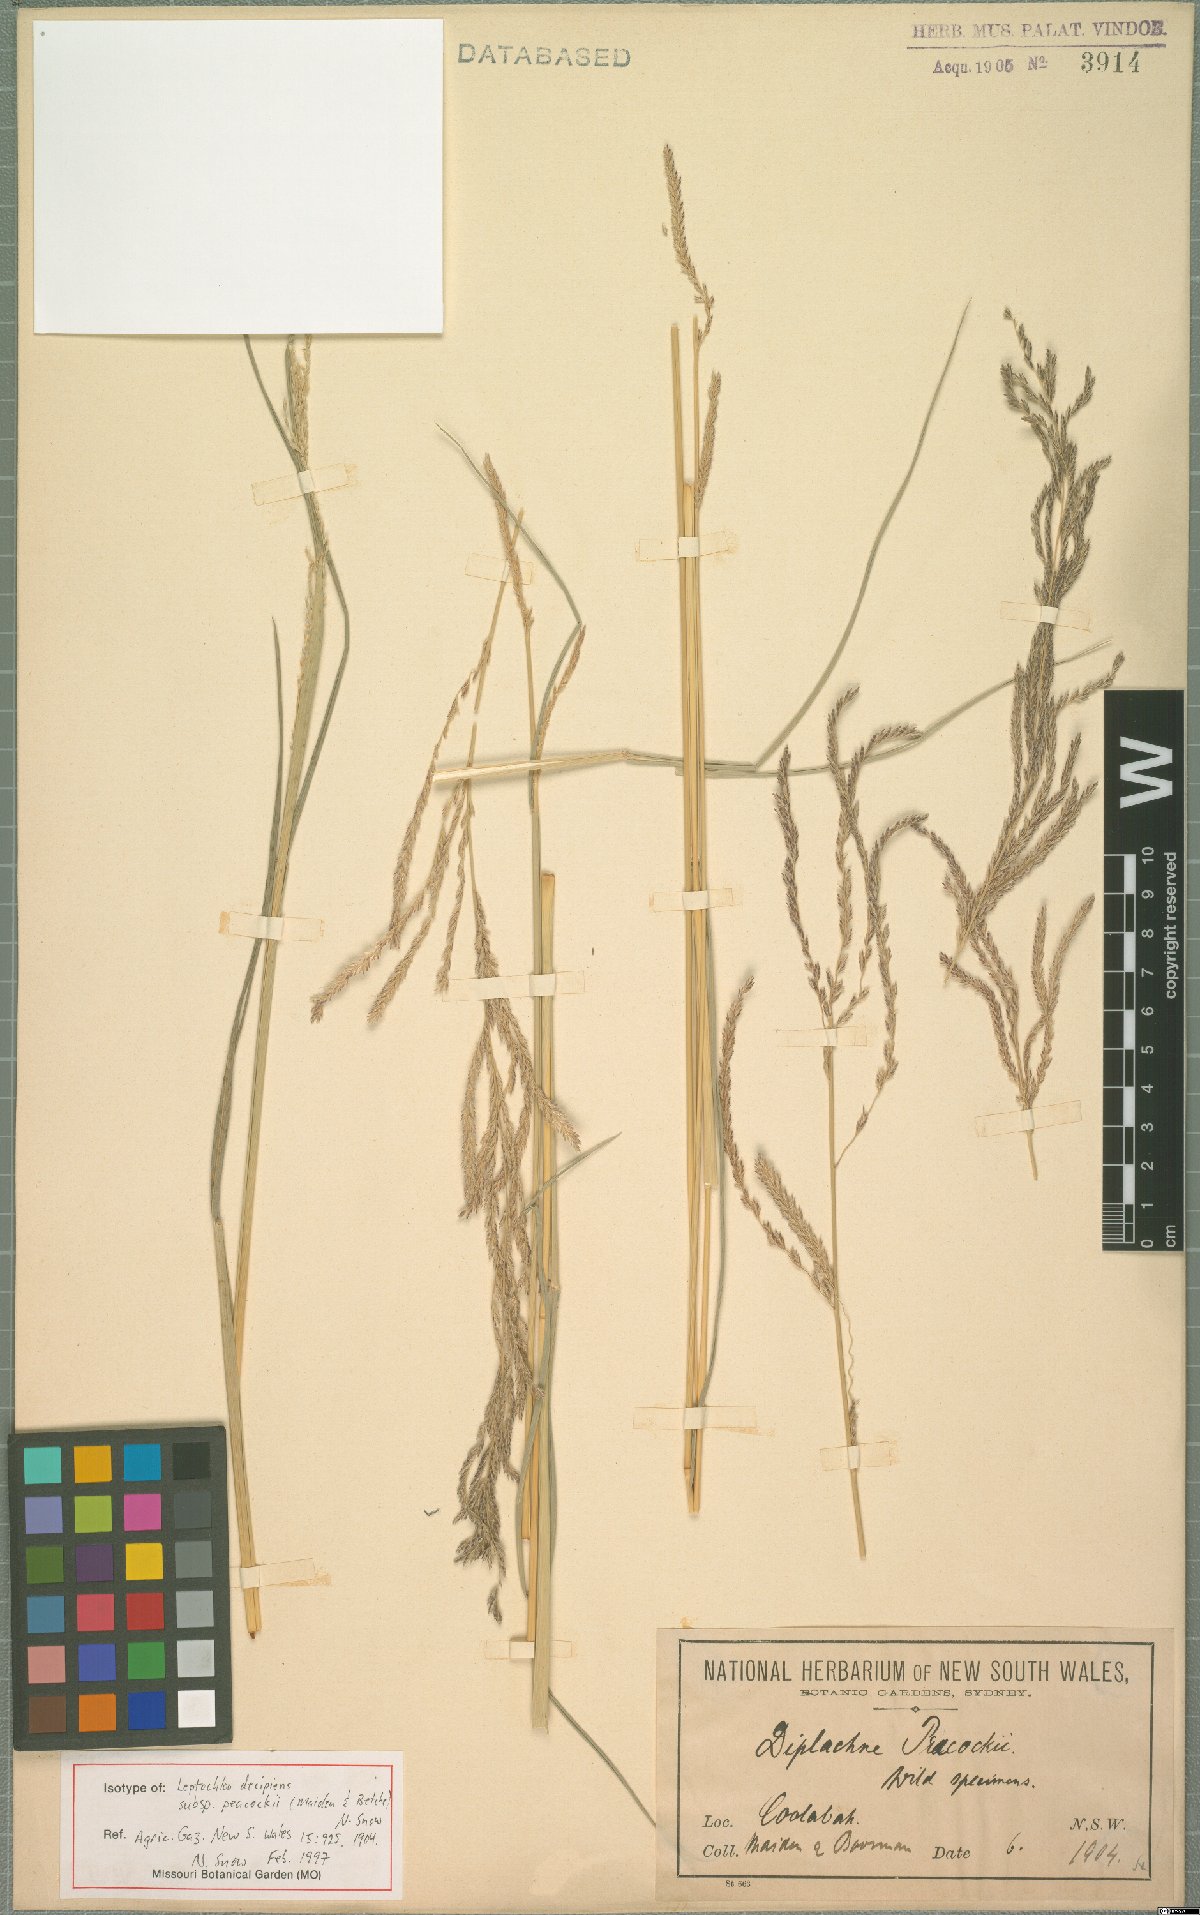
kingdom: Plantae
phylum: Tracheophyta
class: Liliopsida
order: Poales
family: Poaceae
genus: Leptochloa
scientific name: Leptochloa decipiens
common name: Australian sprangletop
